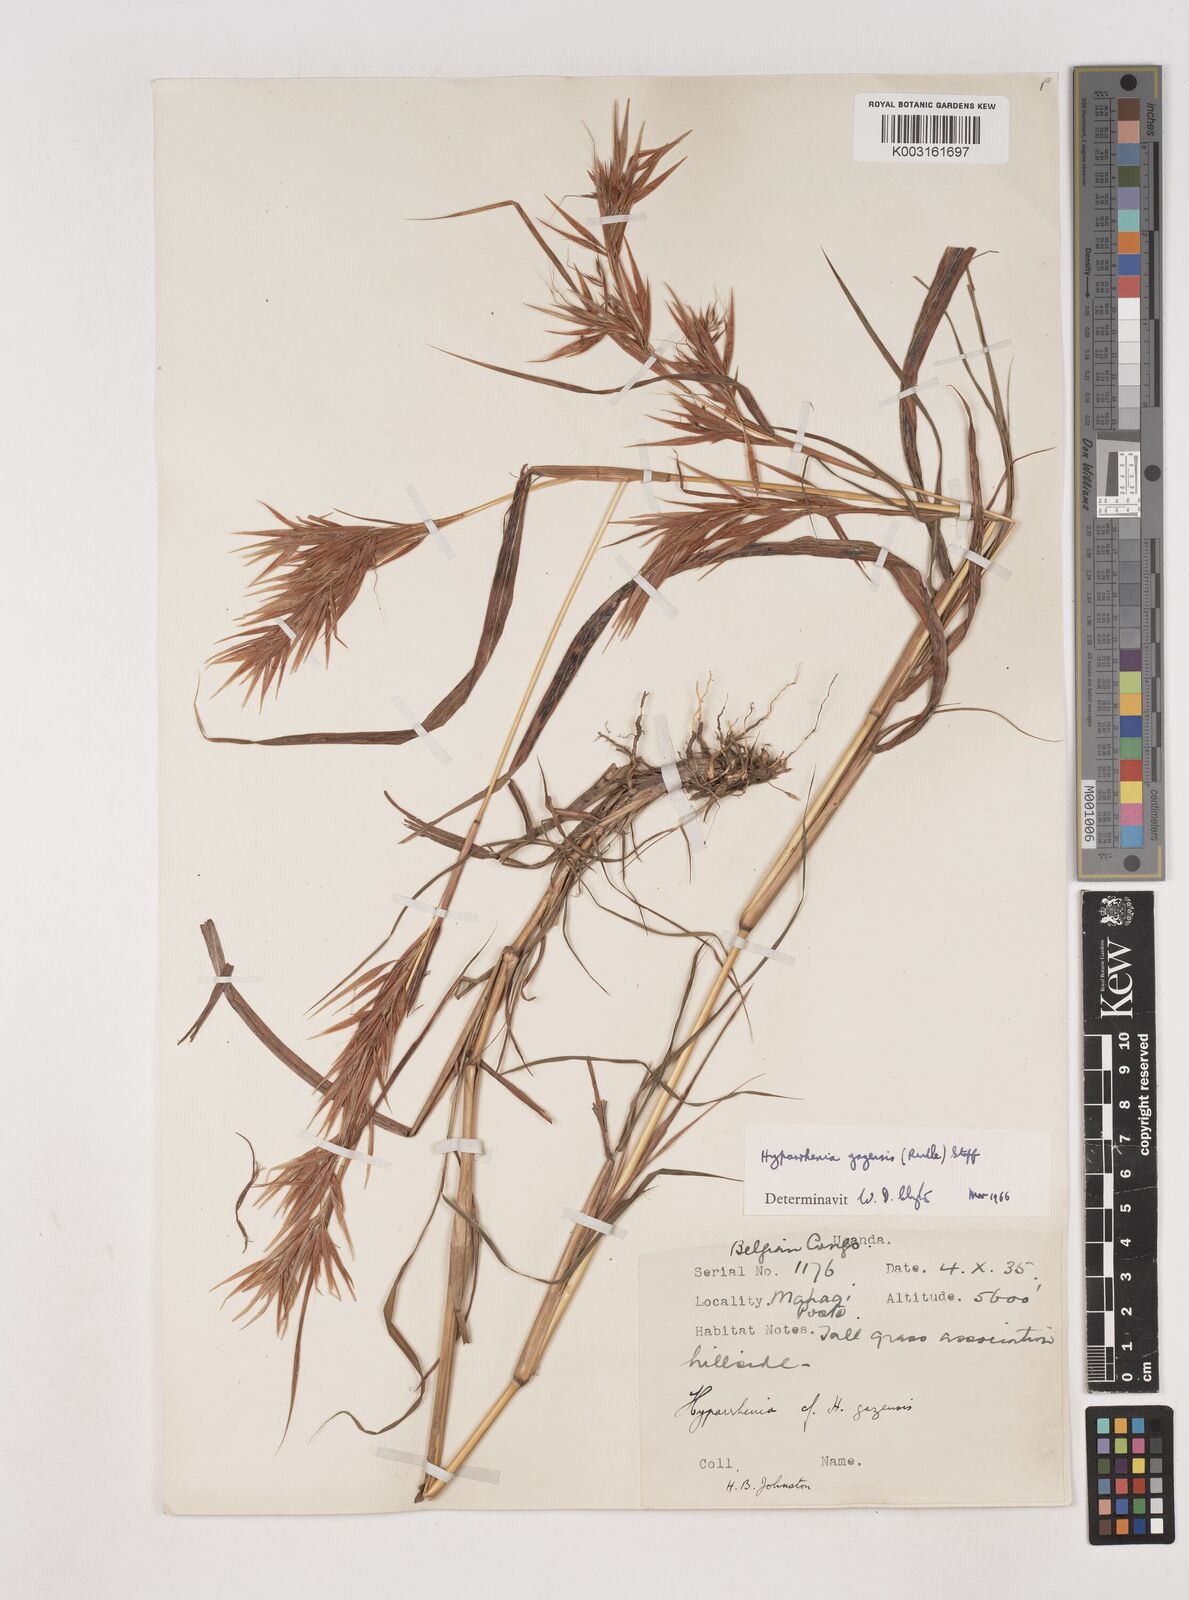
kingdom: Plantae
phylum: Tracheophyta
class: Liliopsida
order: Poales
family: Poaceae
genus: Hyparrhenia
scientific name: Hyparrhenia gazensis
